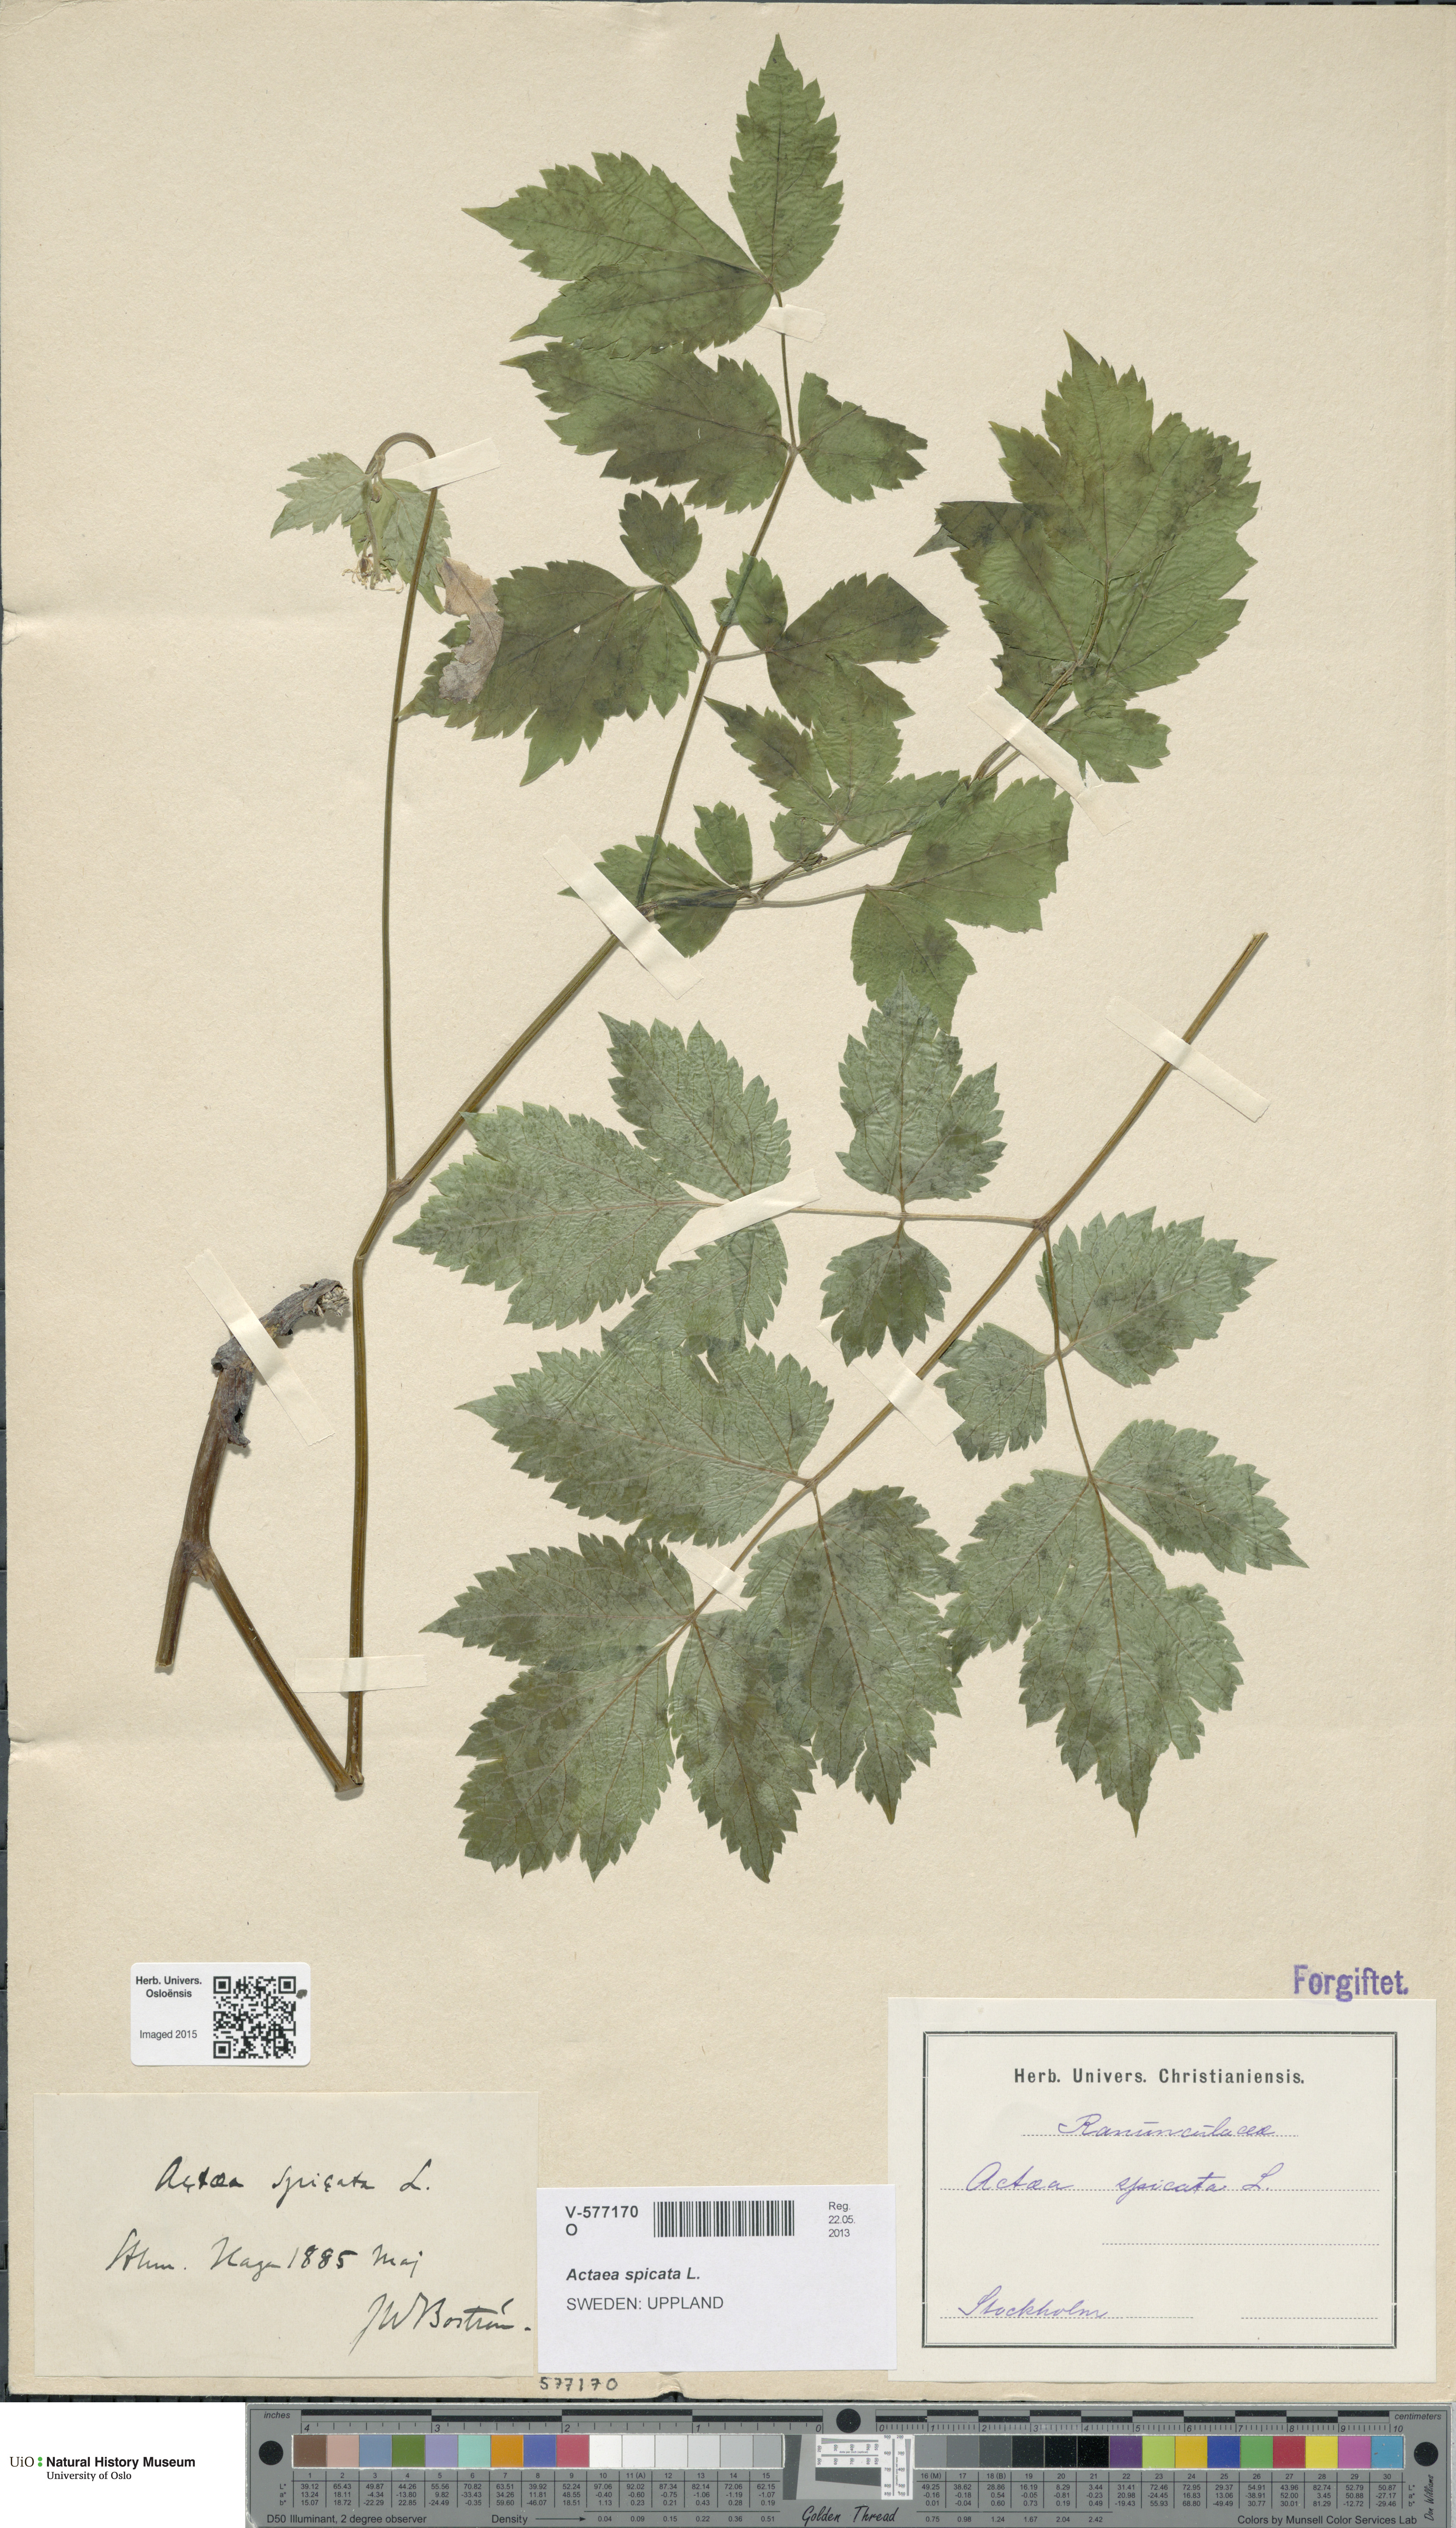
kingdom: Plantae
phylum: Tracheophyta
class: Magnoliopsida
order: Ranunculales
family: Ranunculaceae
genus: Actaea
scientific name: Actaea spicata
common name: Baneberry
